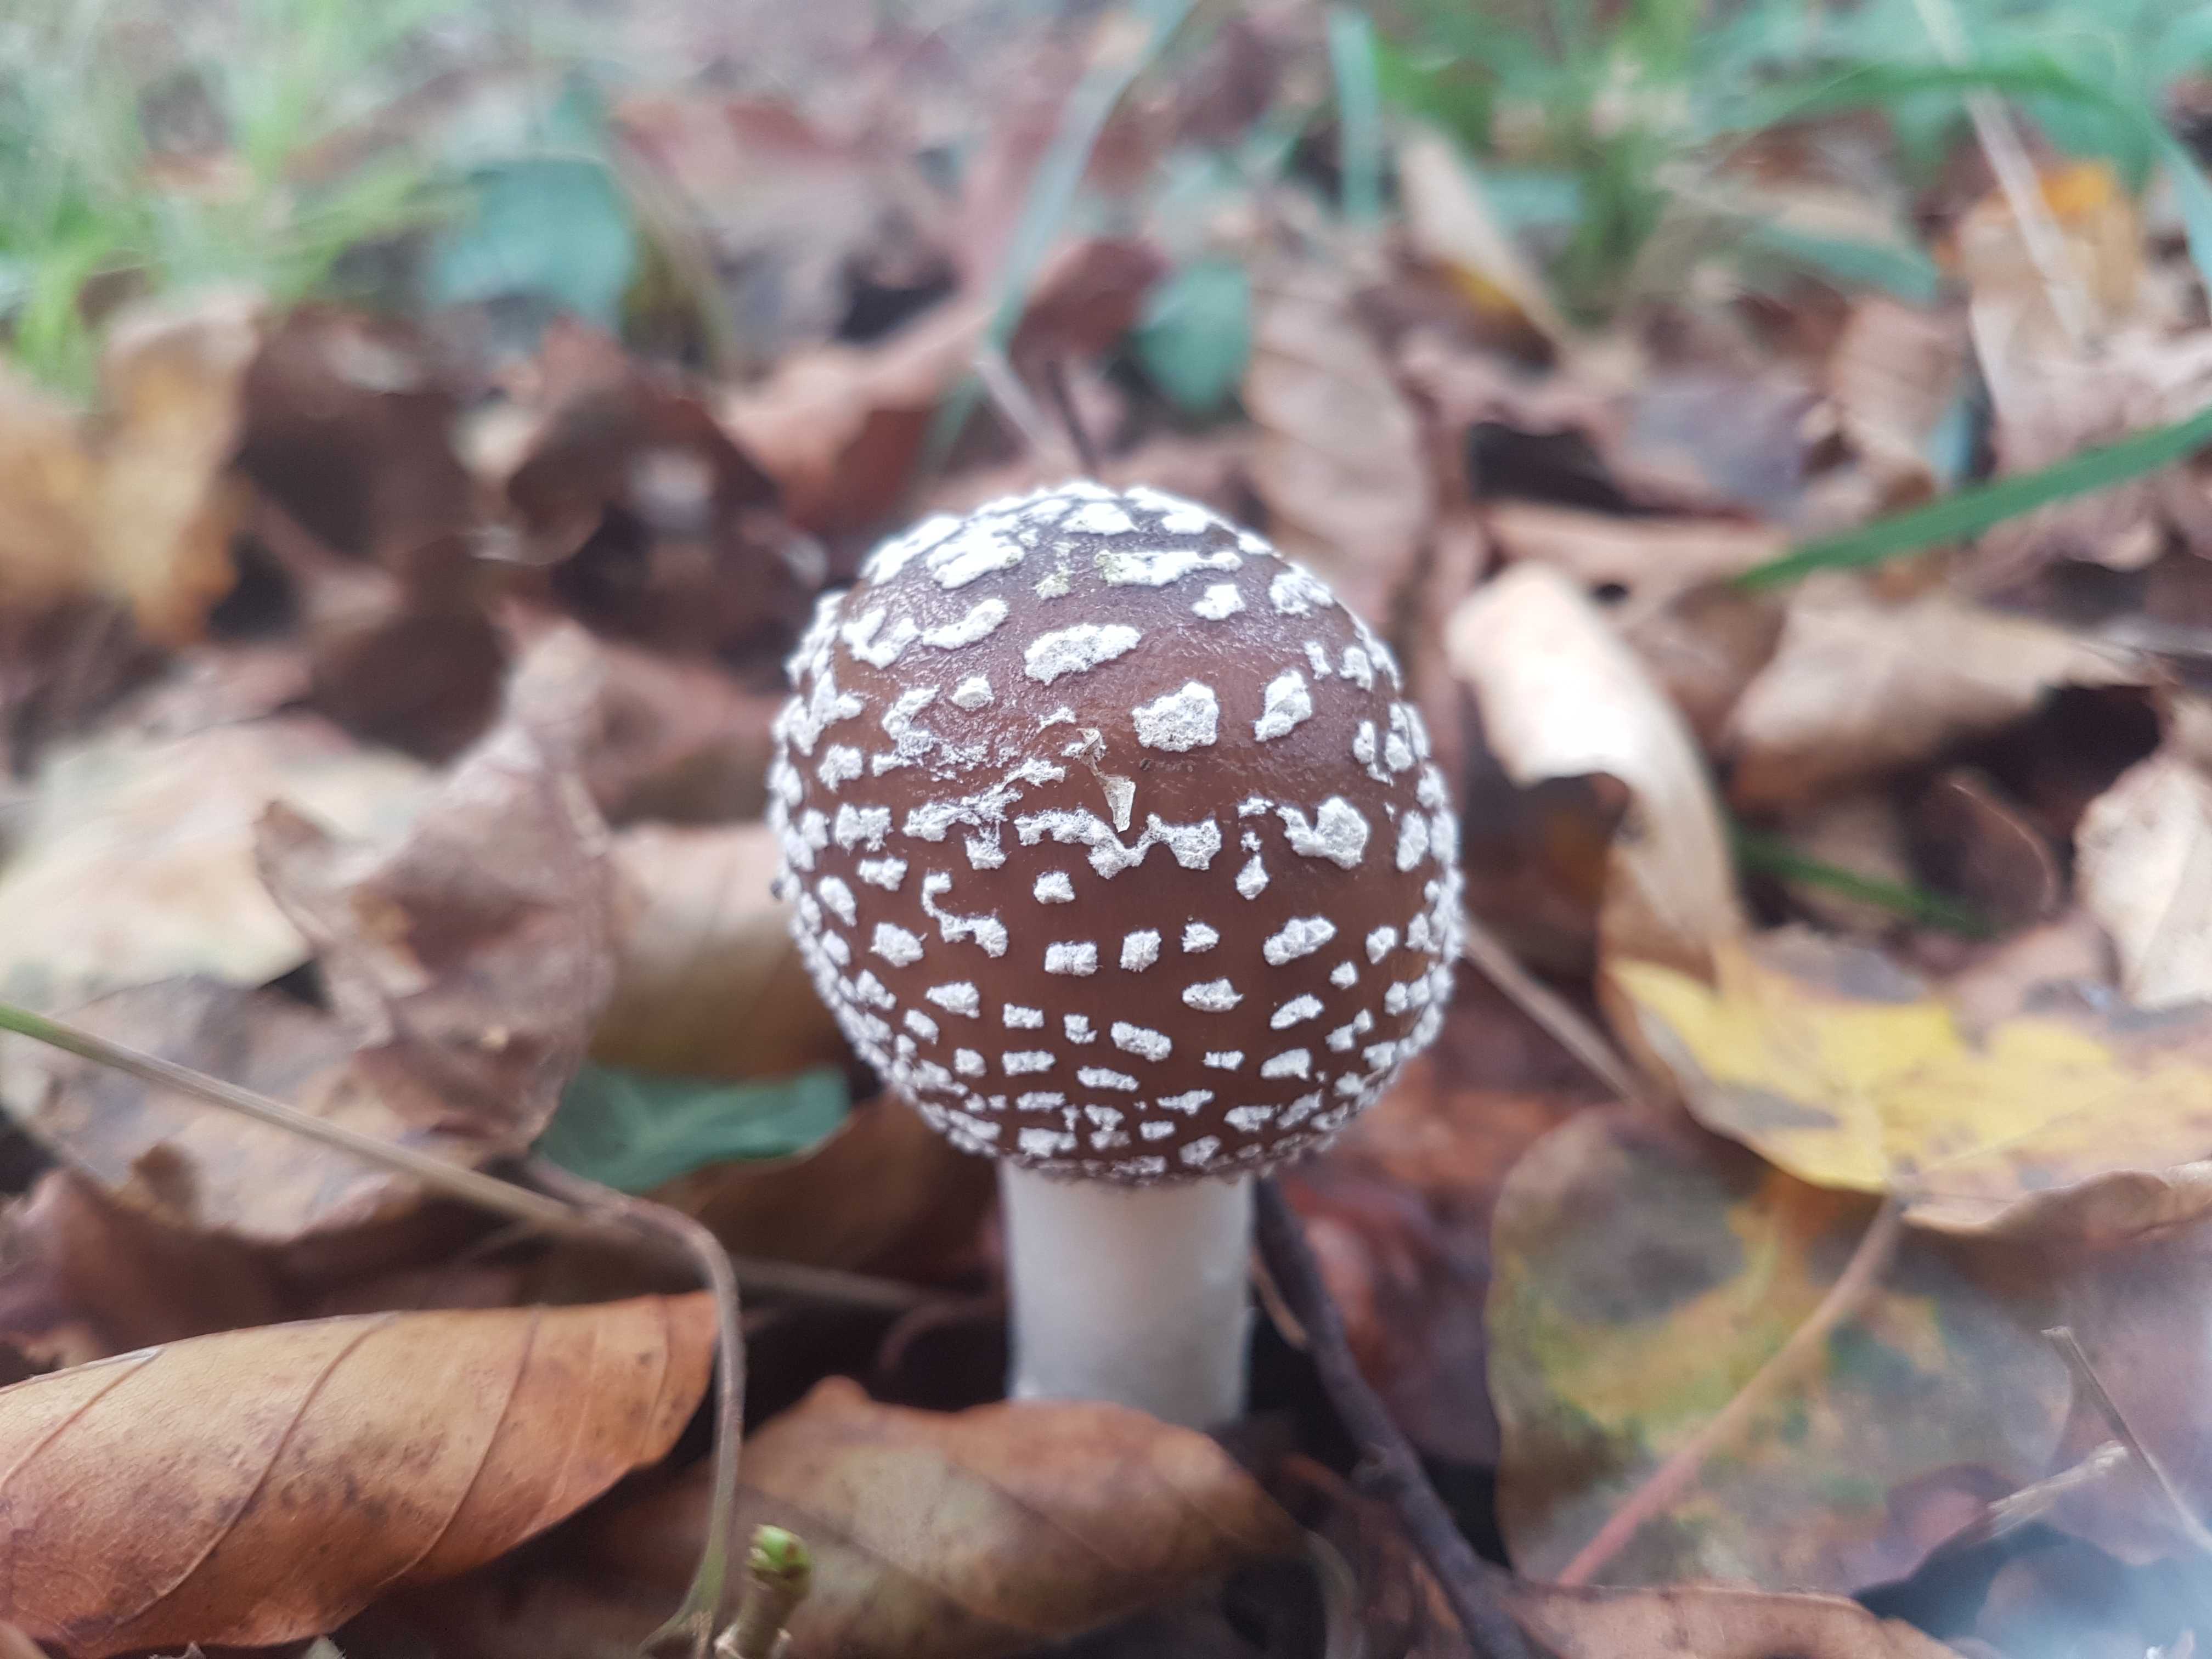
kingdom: Fungi
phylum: Basidiomycota
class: Agaricomycetes
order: Agaricales
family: Amanitaceae
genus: Amanita
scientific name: Amanita pantherina
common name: panter-fluesvamp
